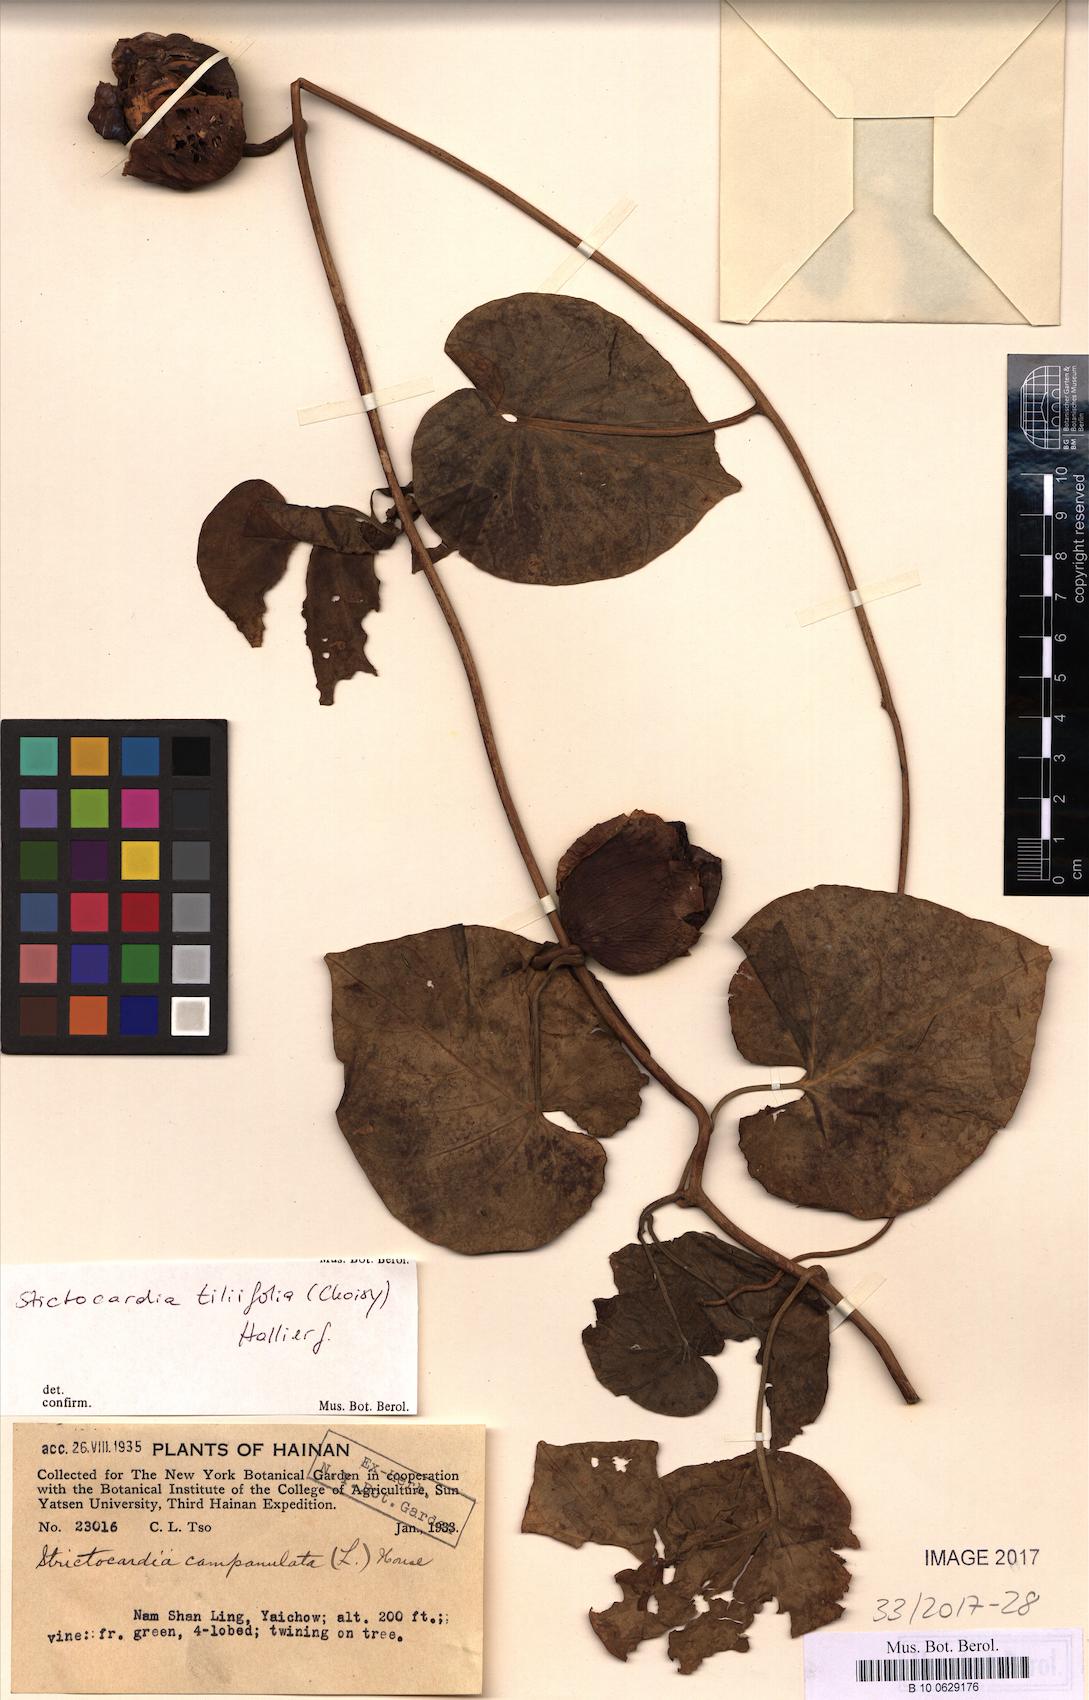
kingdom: Plantae
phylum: Tracheophyta
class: Magnoliopsida
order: Solanales
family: Convolvulaceae
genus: Stictocardia
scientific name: Stictocardia tiliifolia
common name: Spottedheart
